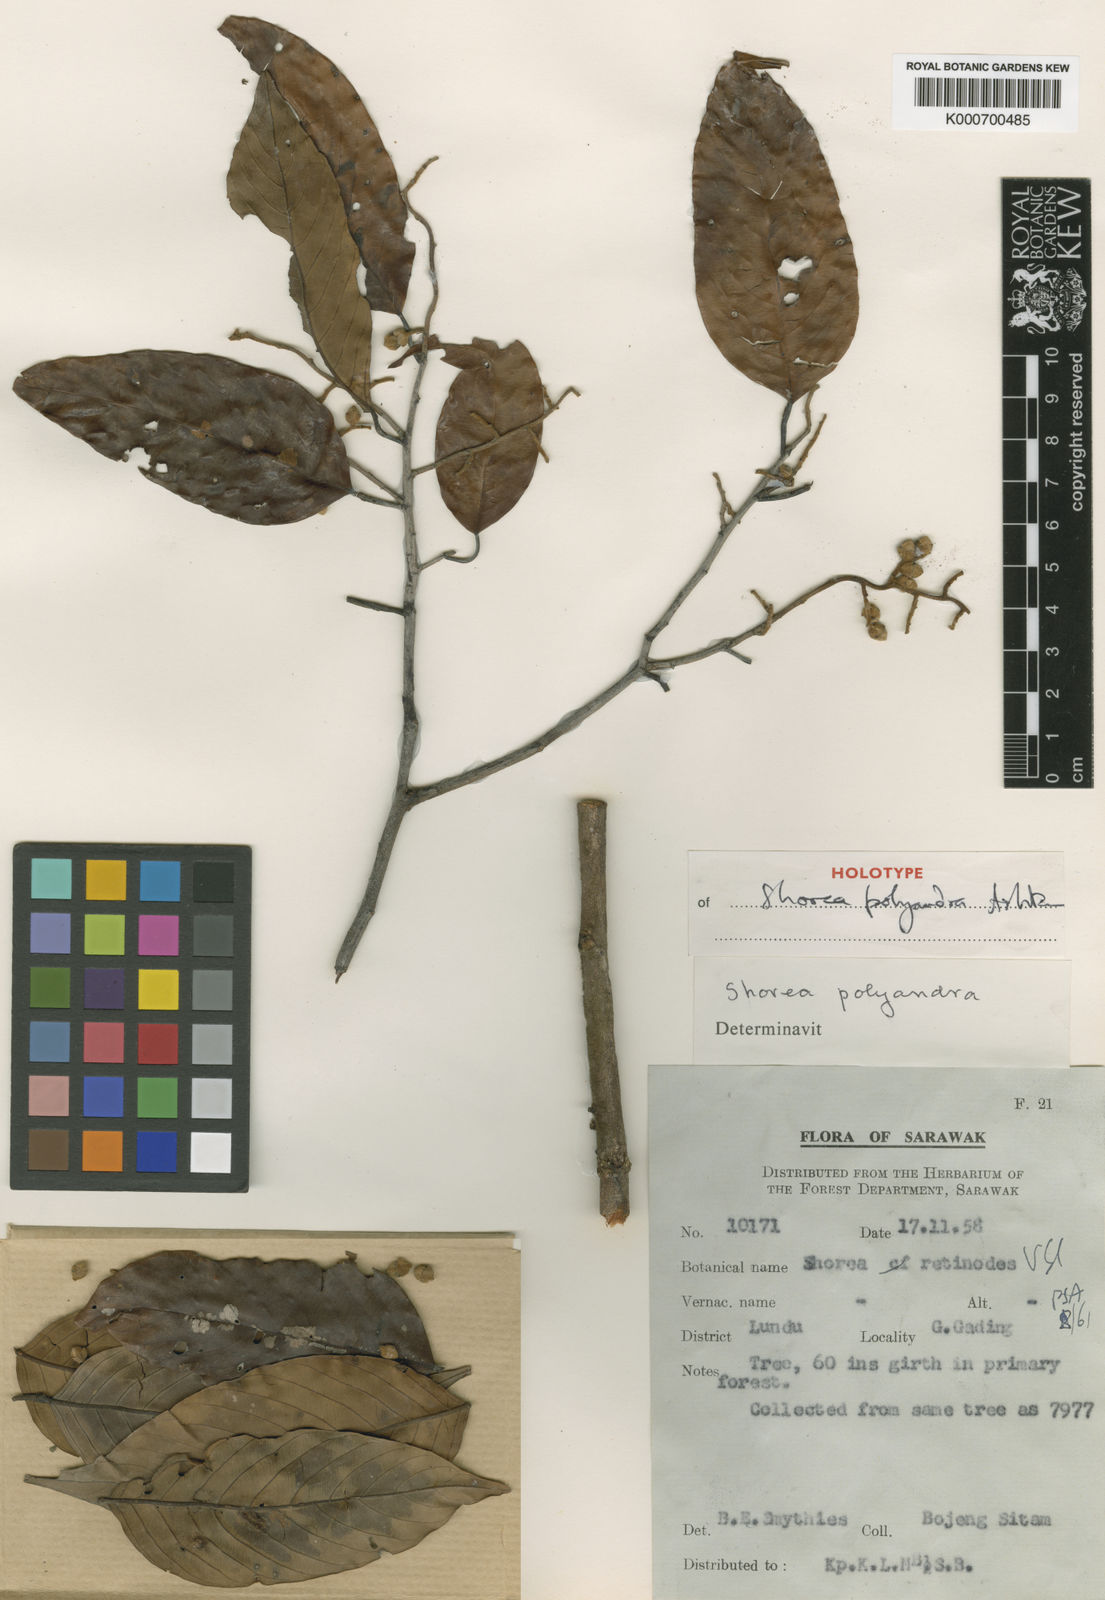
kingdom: Plantae
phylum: Tracheophyta
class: Magnoliopsida
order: Malvales
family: Dipterocarpaceae
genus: Shorea
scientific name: Shorea polyandra
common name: Yellow meranti
